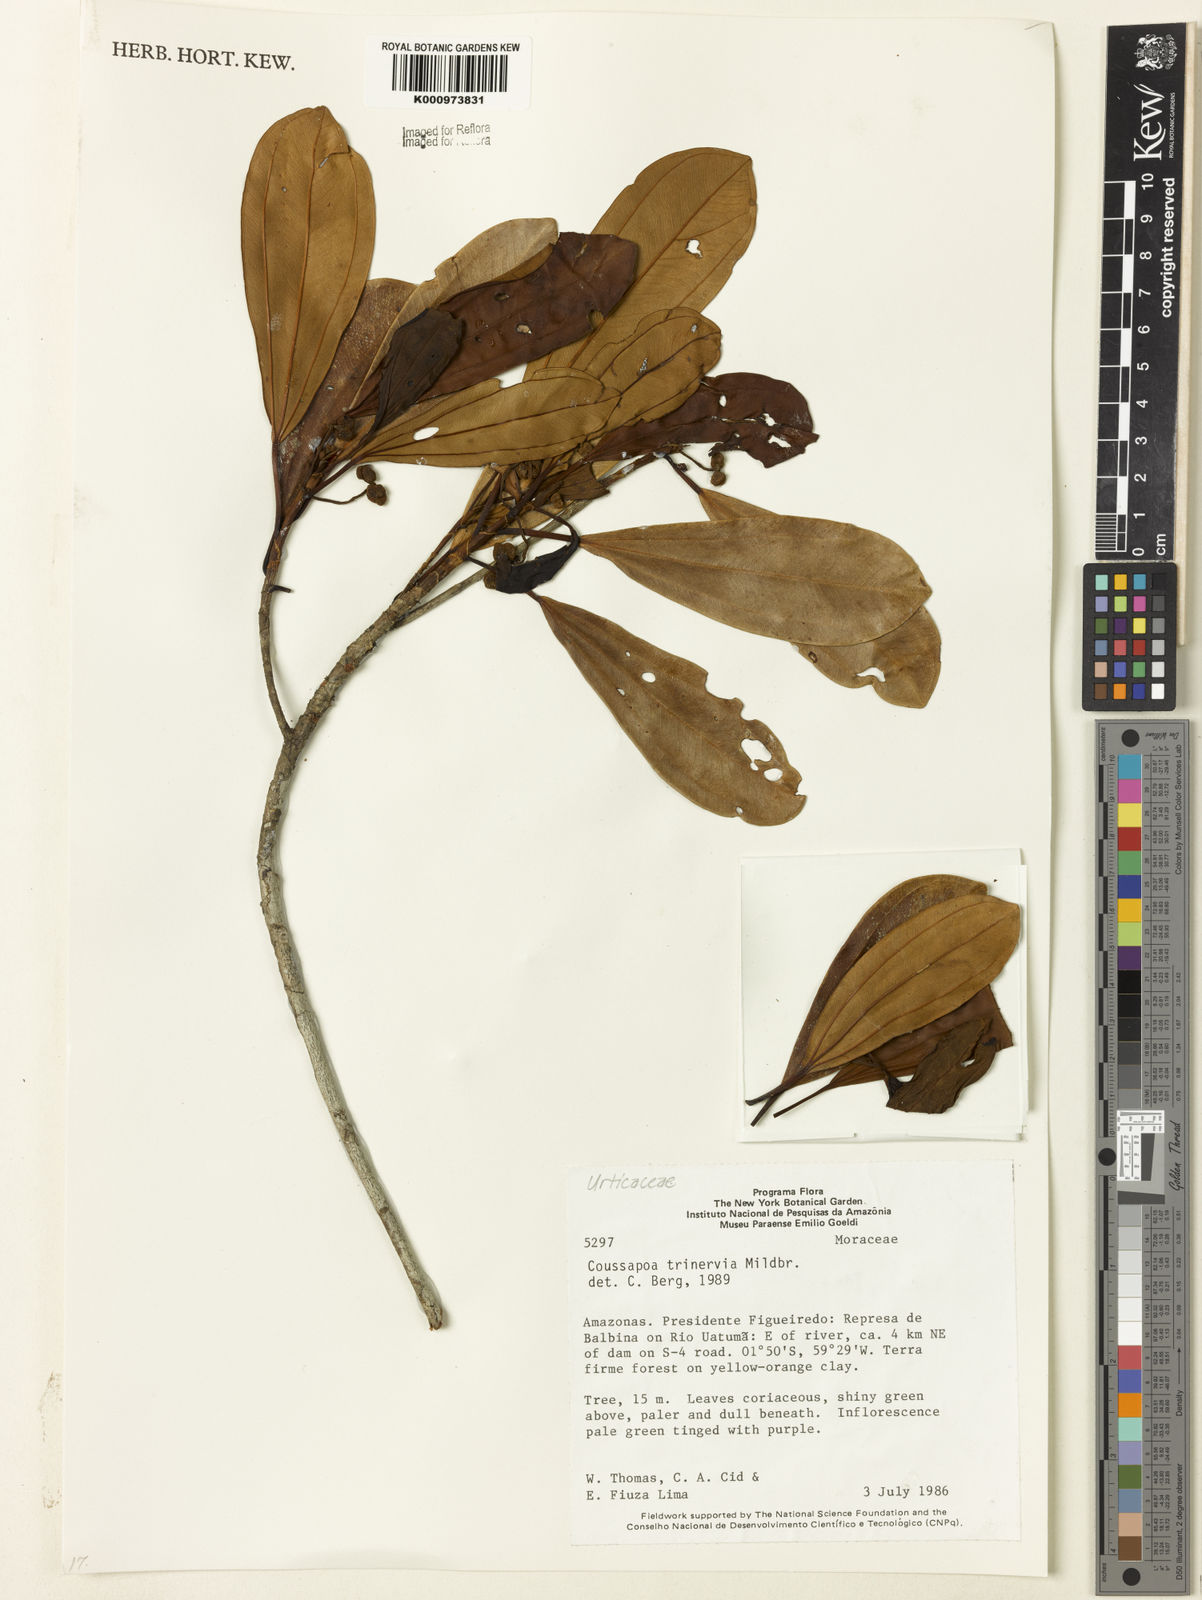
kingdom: Plantae
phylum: Tracheophyta
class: Magnoliopsida
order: Rosales
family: Urticaceae
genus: Coussapoa
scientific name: Coussapoa trinervia
